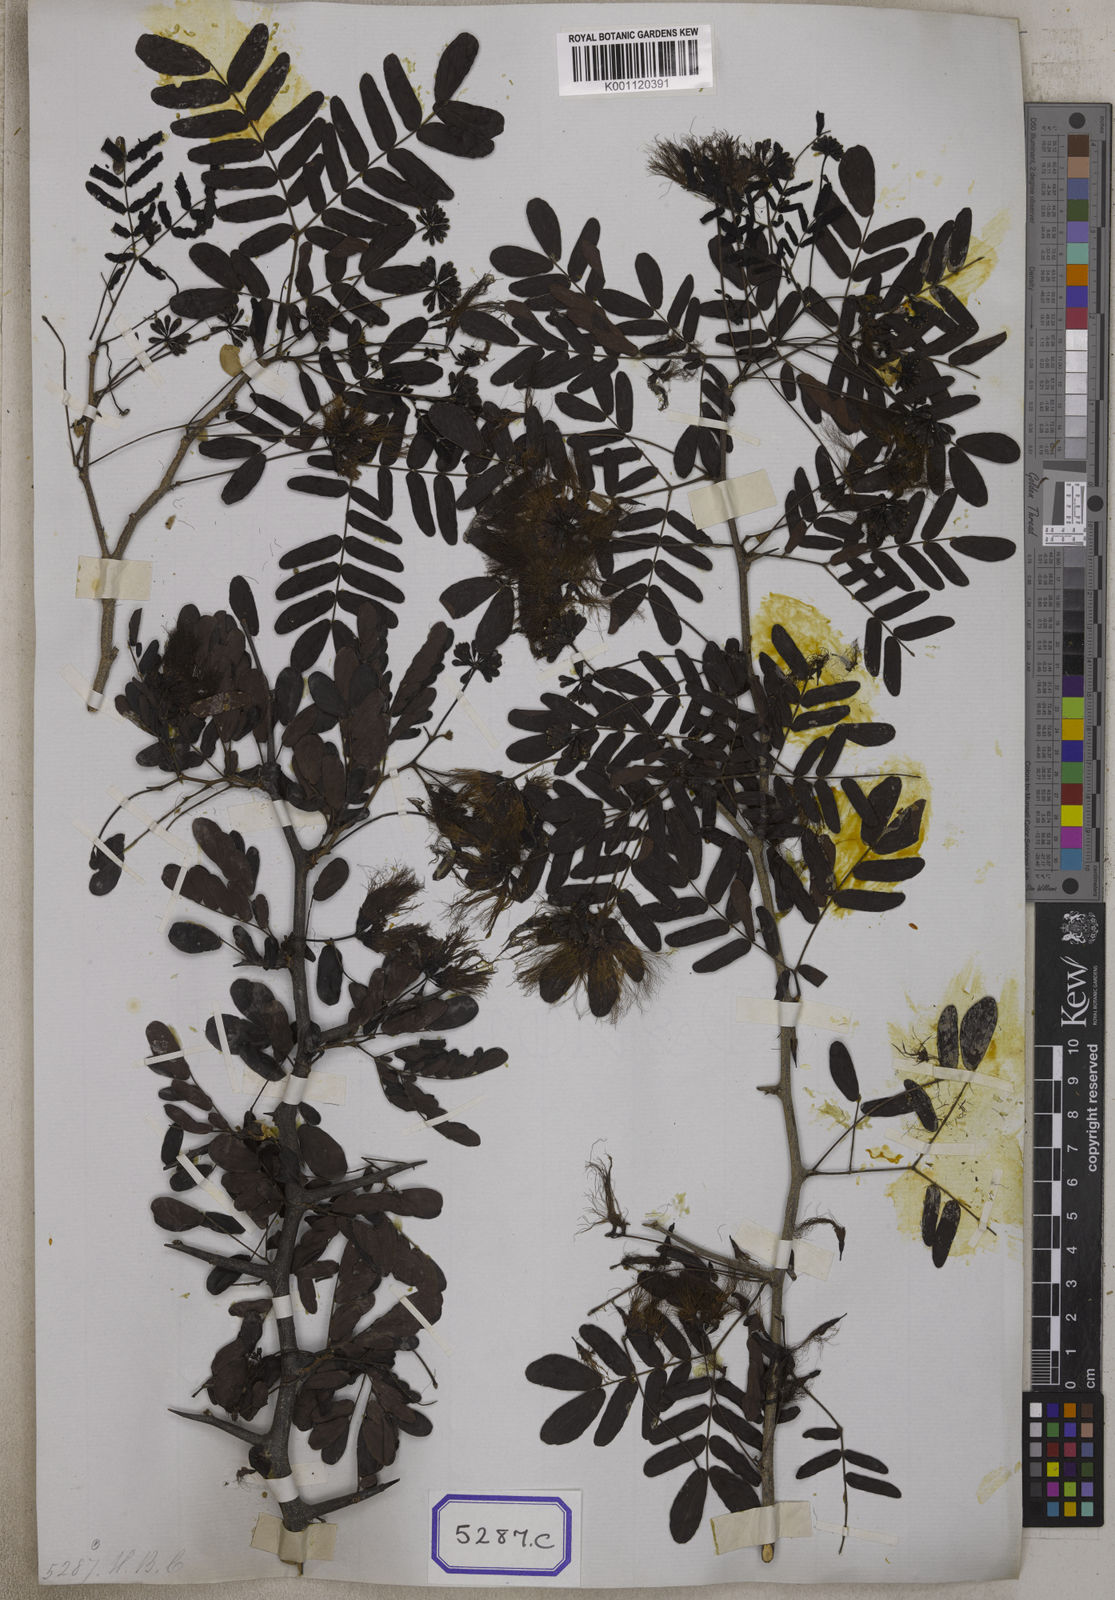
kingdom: Plantae
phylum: Tracheophyta
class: Magnoliopsida
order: Fabales
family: Fabaceae
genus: Cathormion
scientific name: Cathormion umbellatum
